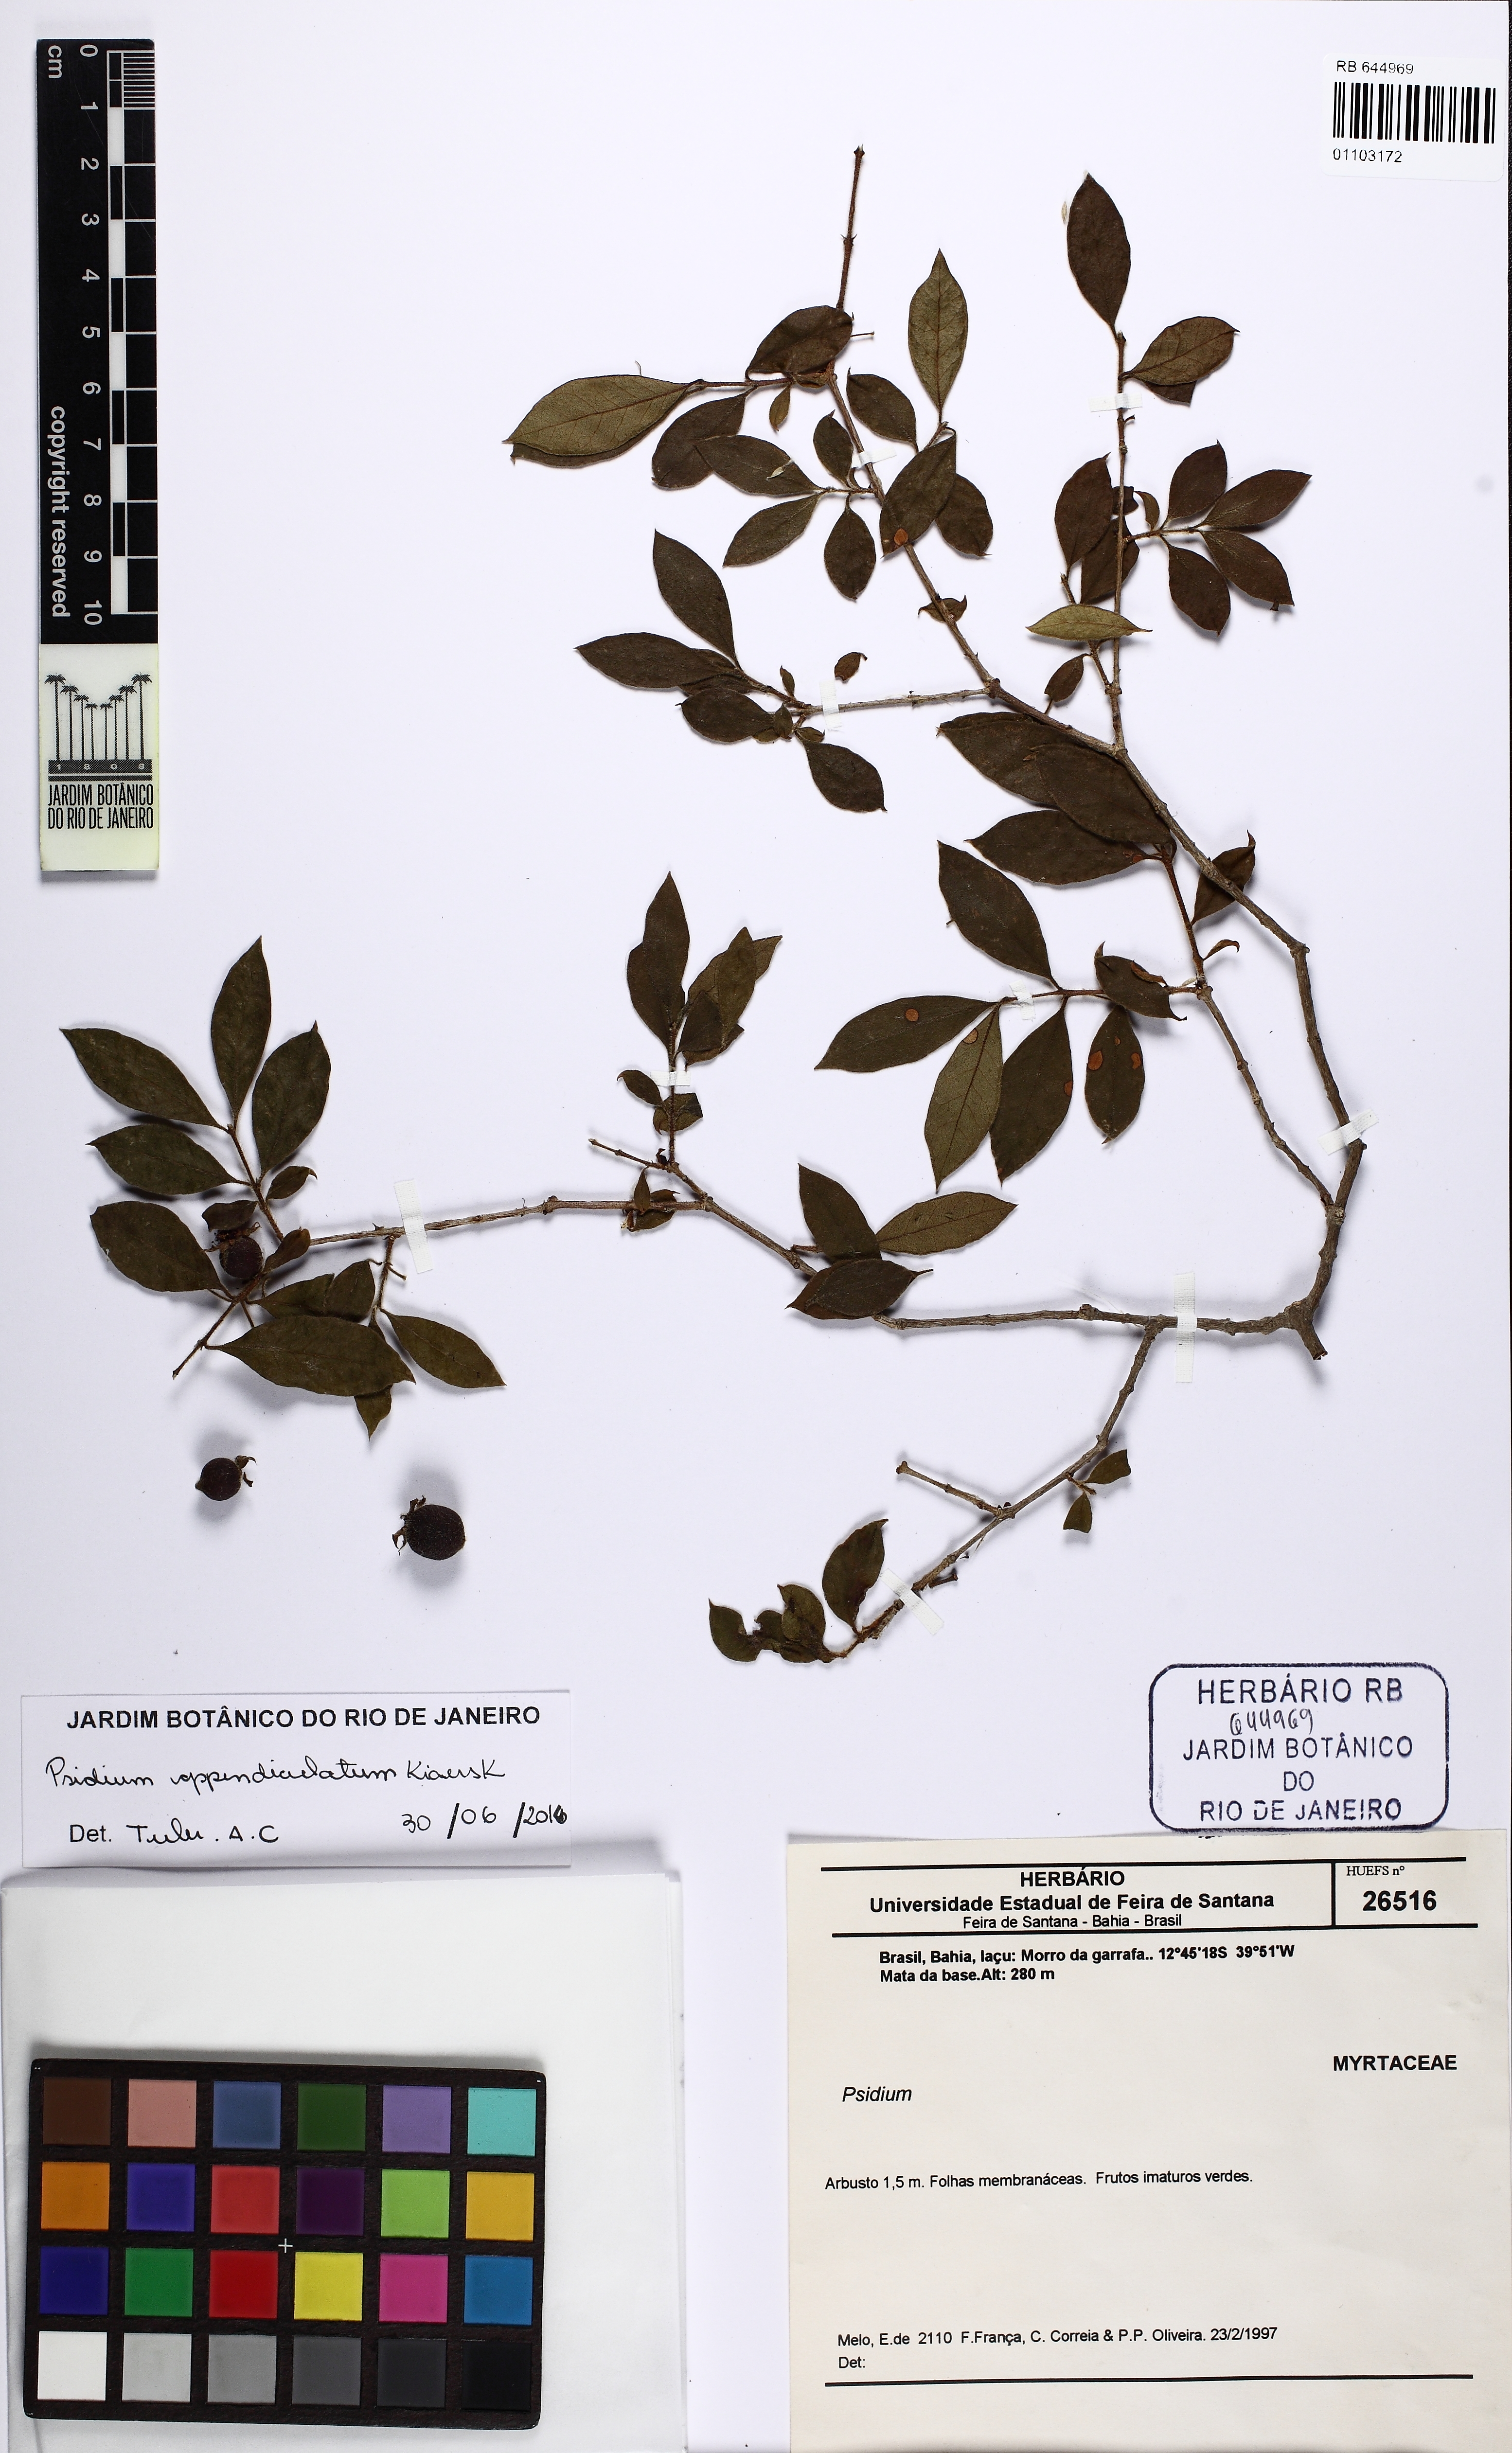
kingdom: Plantae
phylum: Tracheophyta
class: Magnoliopsida
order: Myrtales
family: Myrtaceae
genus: Psidium
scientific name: Psidium appendiculatum
